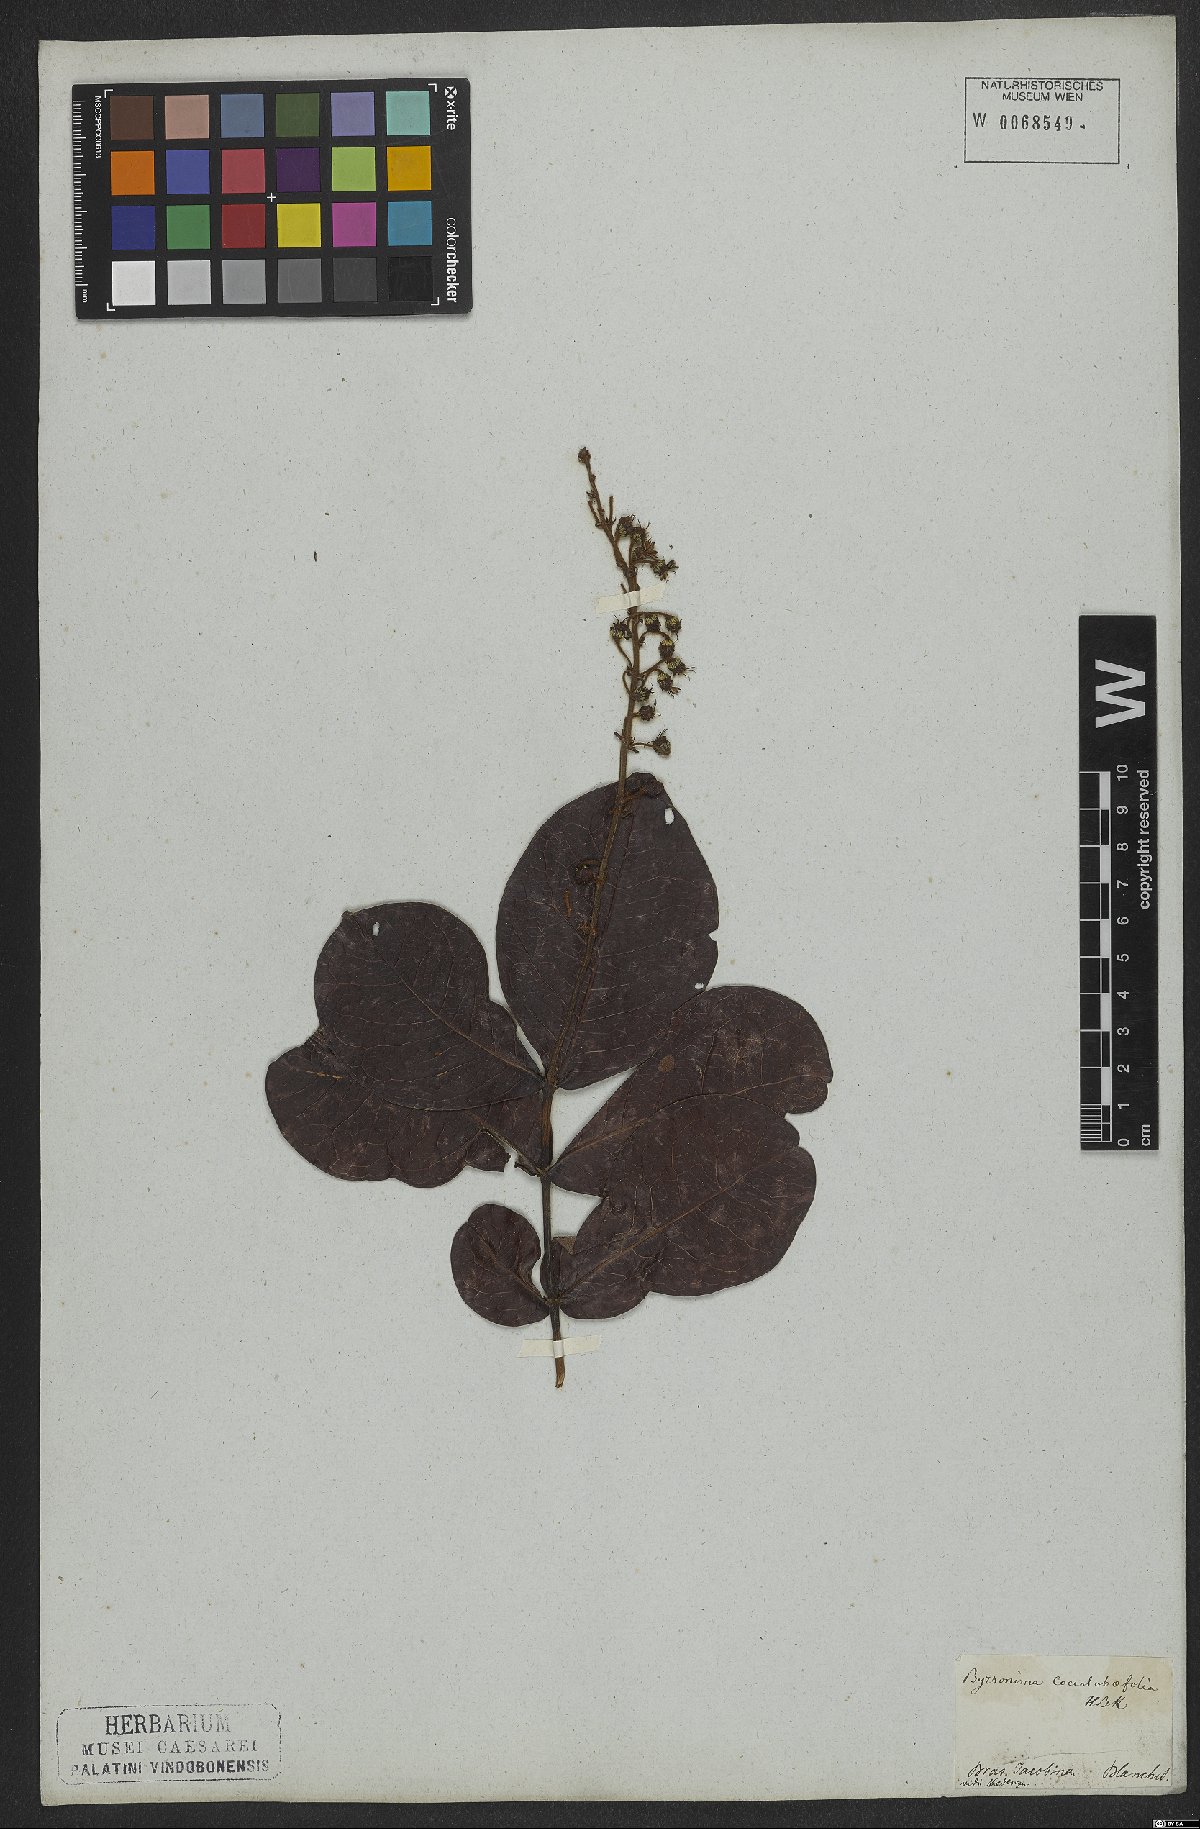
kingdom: Plantae
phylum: Tracheophyta
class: Magnoliopsida
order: Malpighiales
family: Malpighiaceae
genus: Byrsonima
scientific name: Byrsonima coccolobifolia
